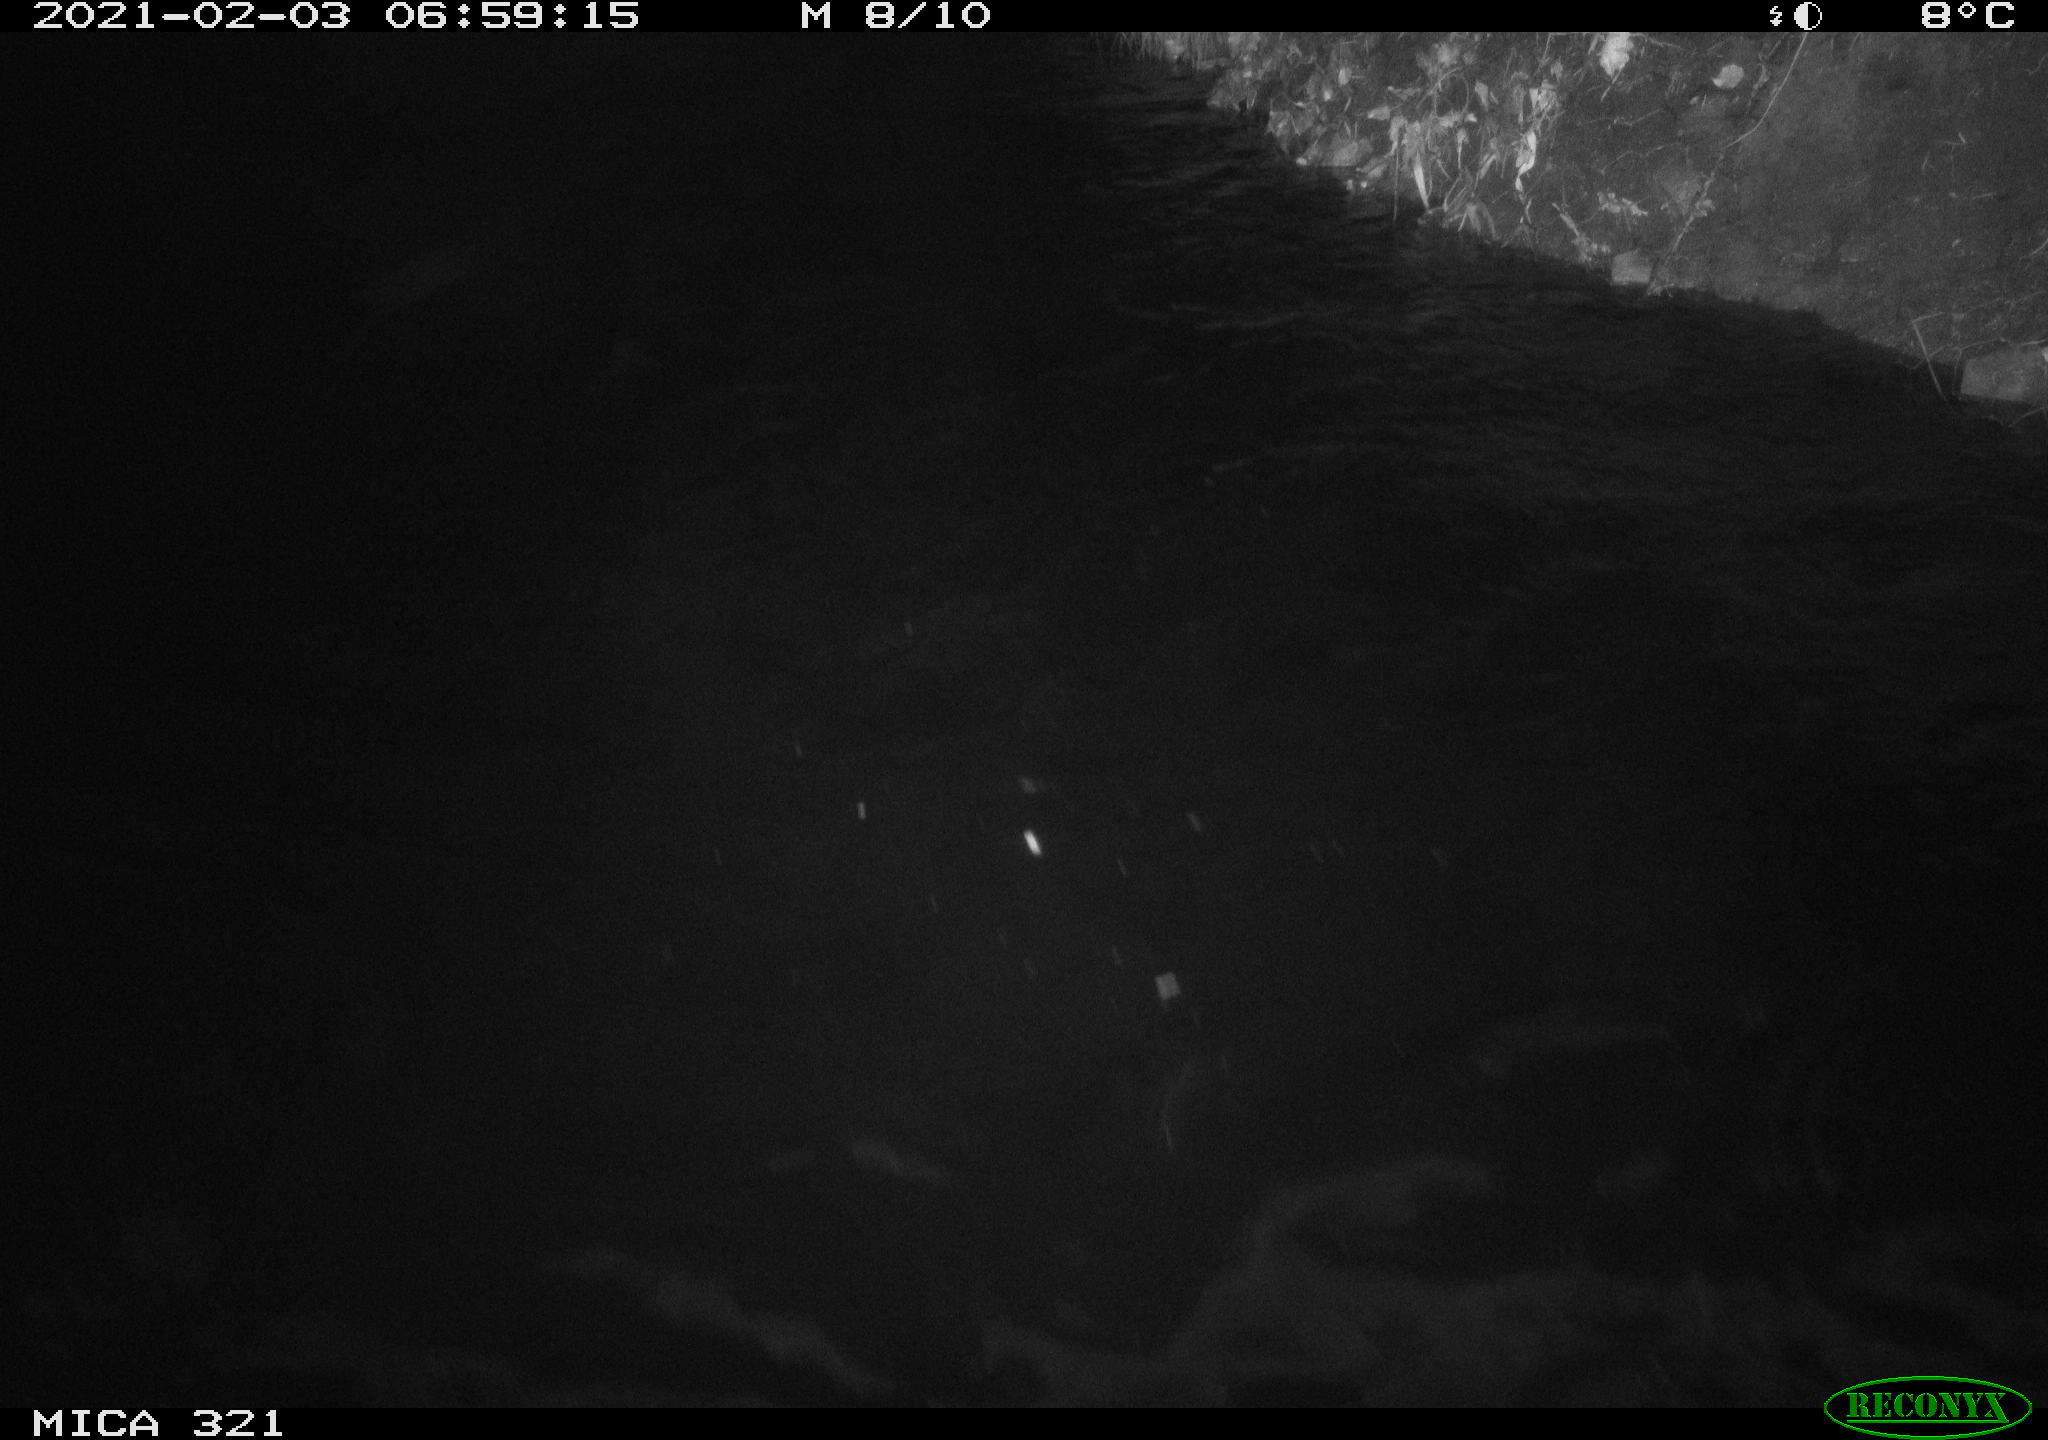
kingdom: Animalia
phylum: Chordata
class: Aves
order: Anseriformes
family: Anatidae
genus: Anas
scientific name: Anas platyrhynchos
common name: Mallard
